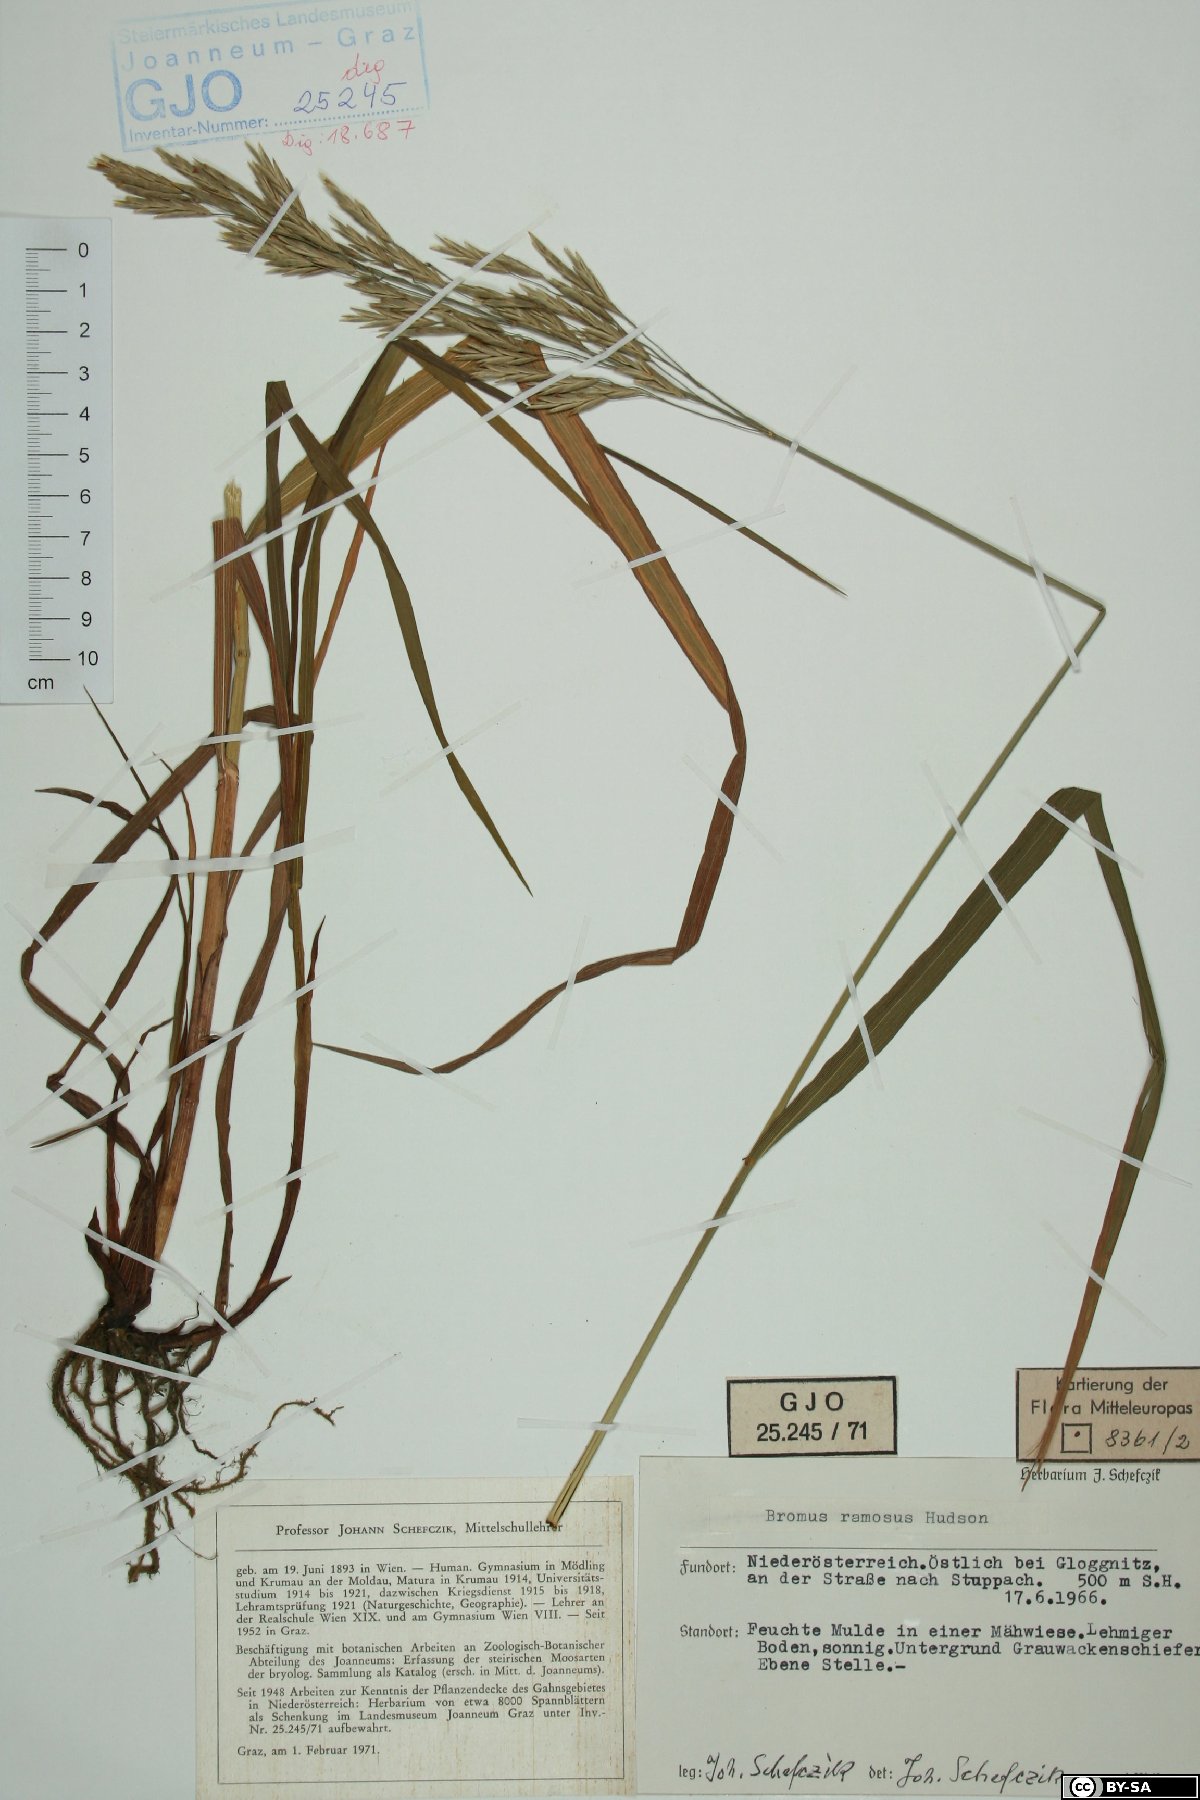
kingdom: Plantae
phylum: Tracheophyta
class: Liliopsida
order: Poales
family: Poaceae
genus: Bromus
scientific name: Bromus ramosus
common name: Hairy brome
